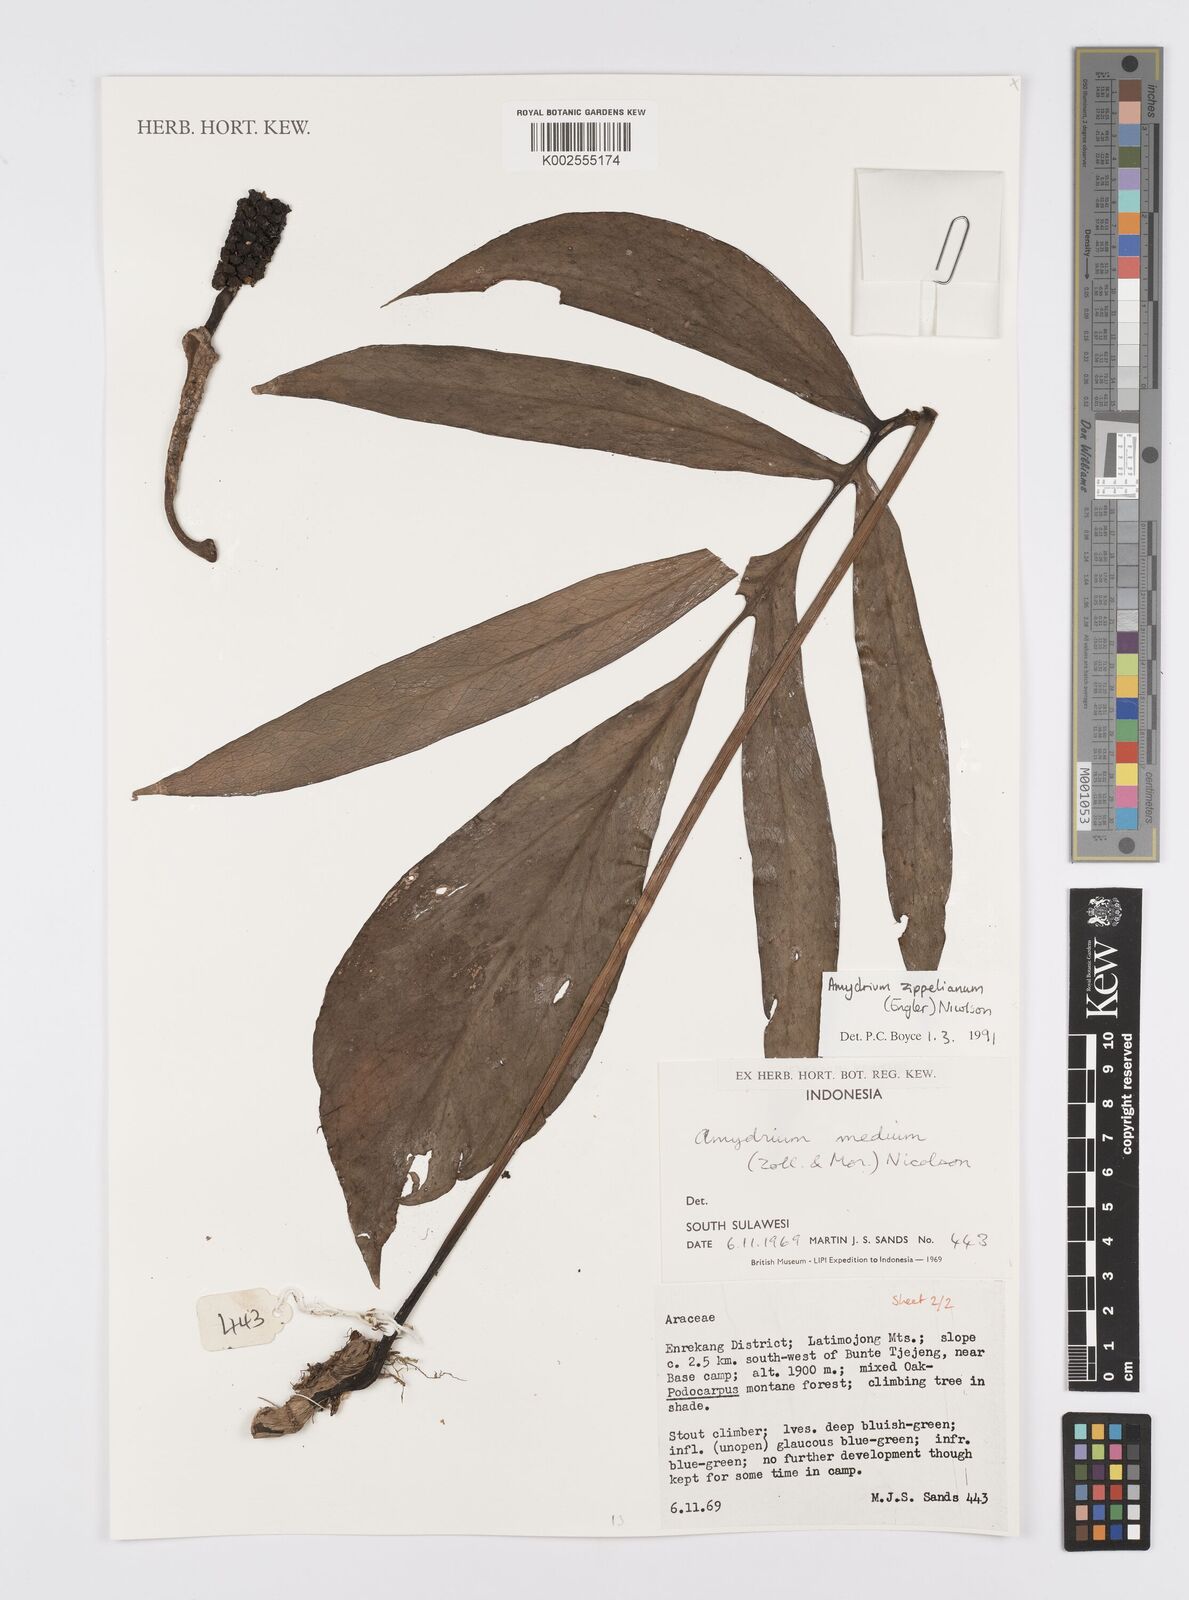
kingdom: Plantae
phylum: Tracheophyta
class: Liliopsida
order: Alismatales
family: Araceae
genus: Amydrium
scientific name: Amydrium zippelianum
